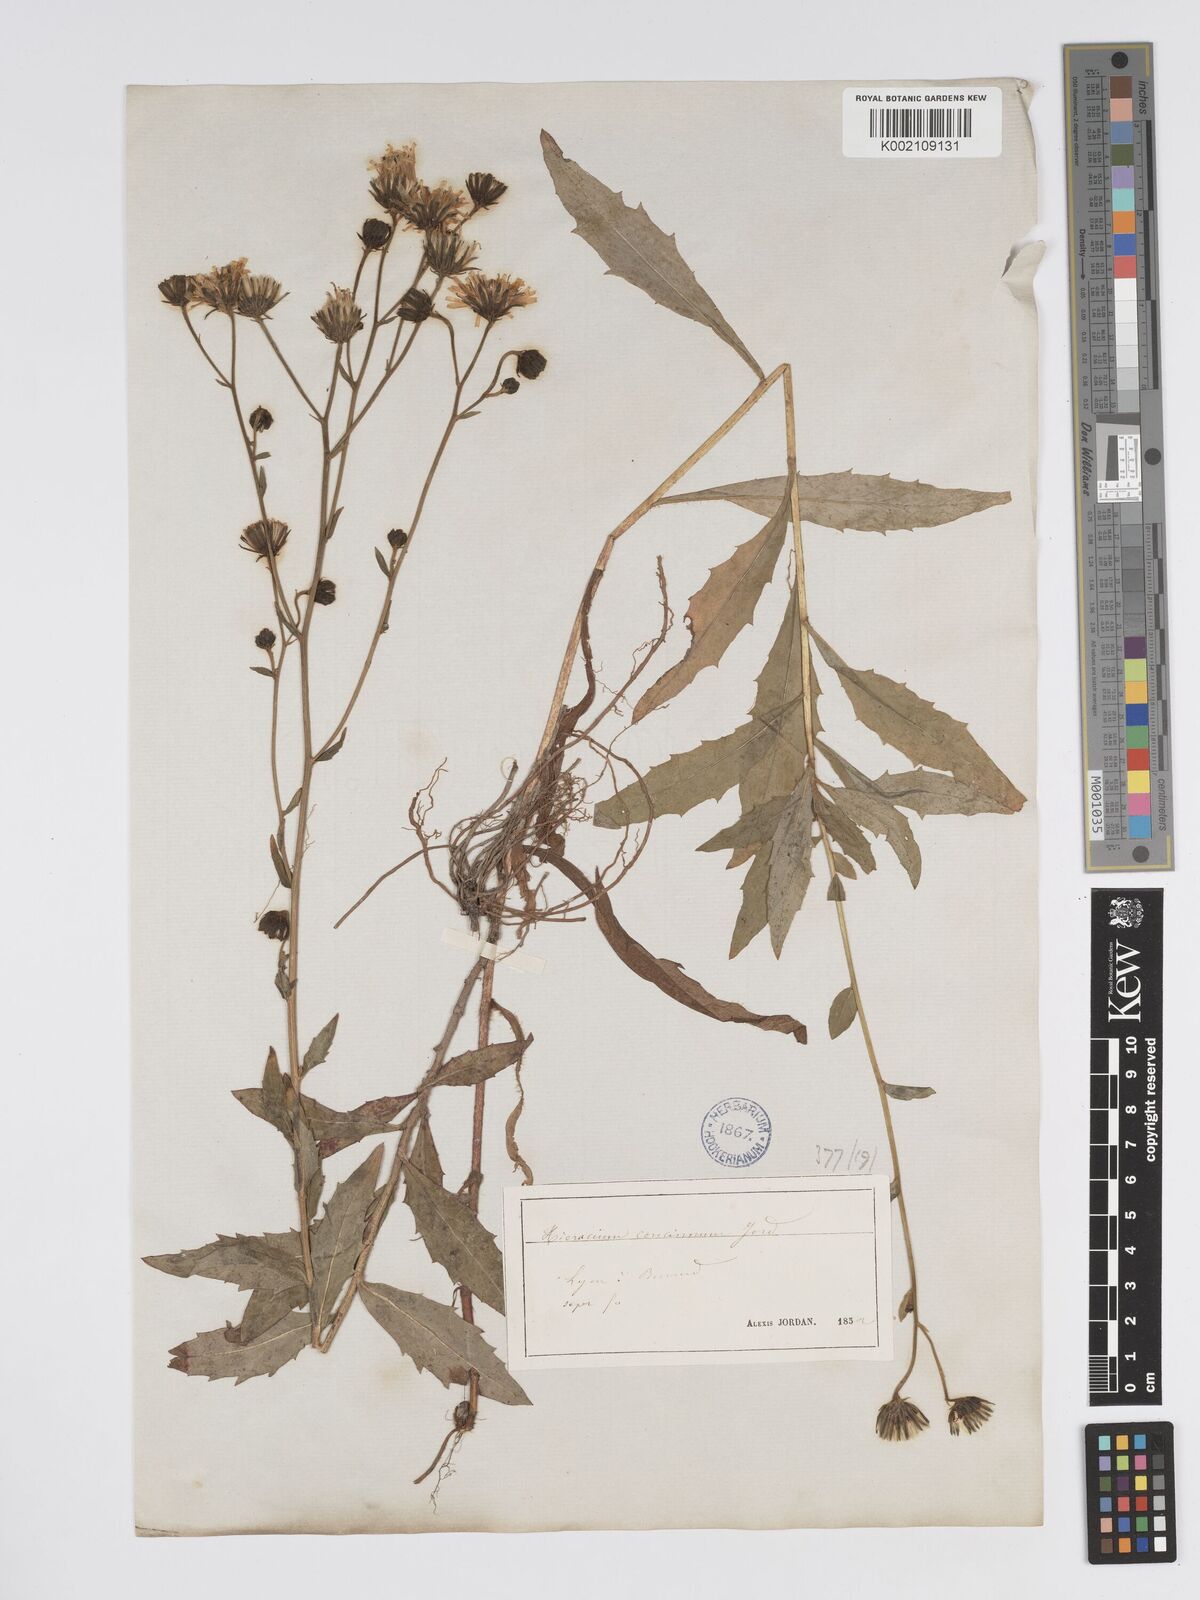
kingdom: Plantae
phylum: Tracheophyta
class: Magnoliopsida
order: Asterales
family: Asteraceae
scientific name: Asteraceae
